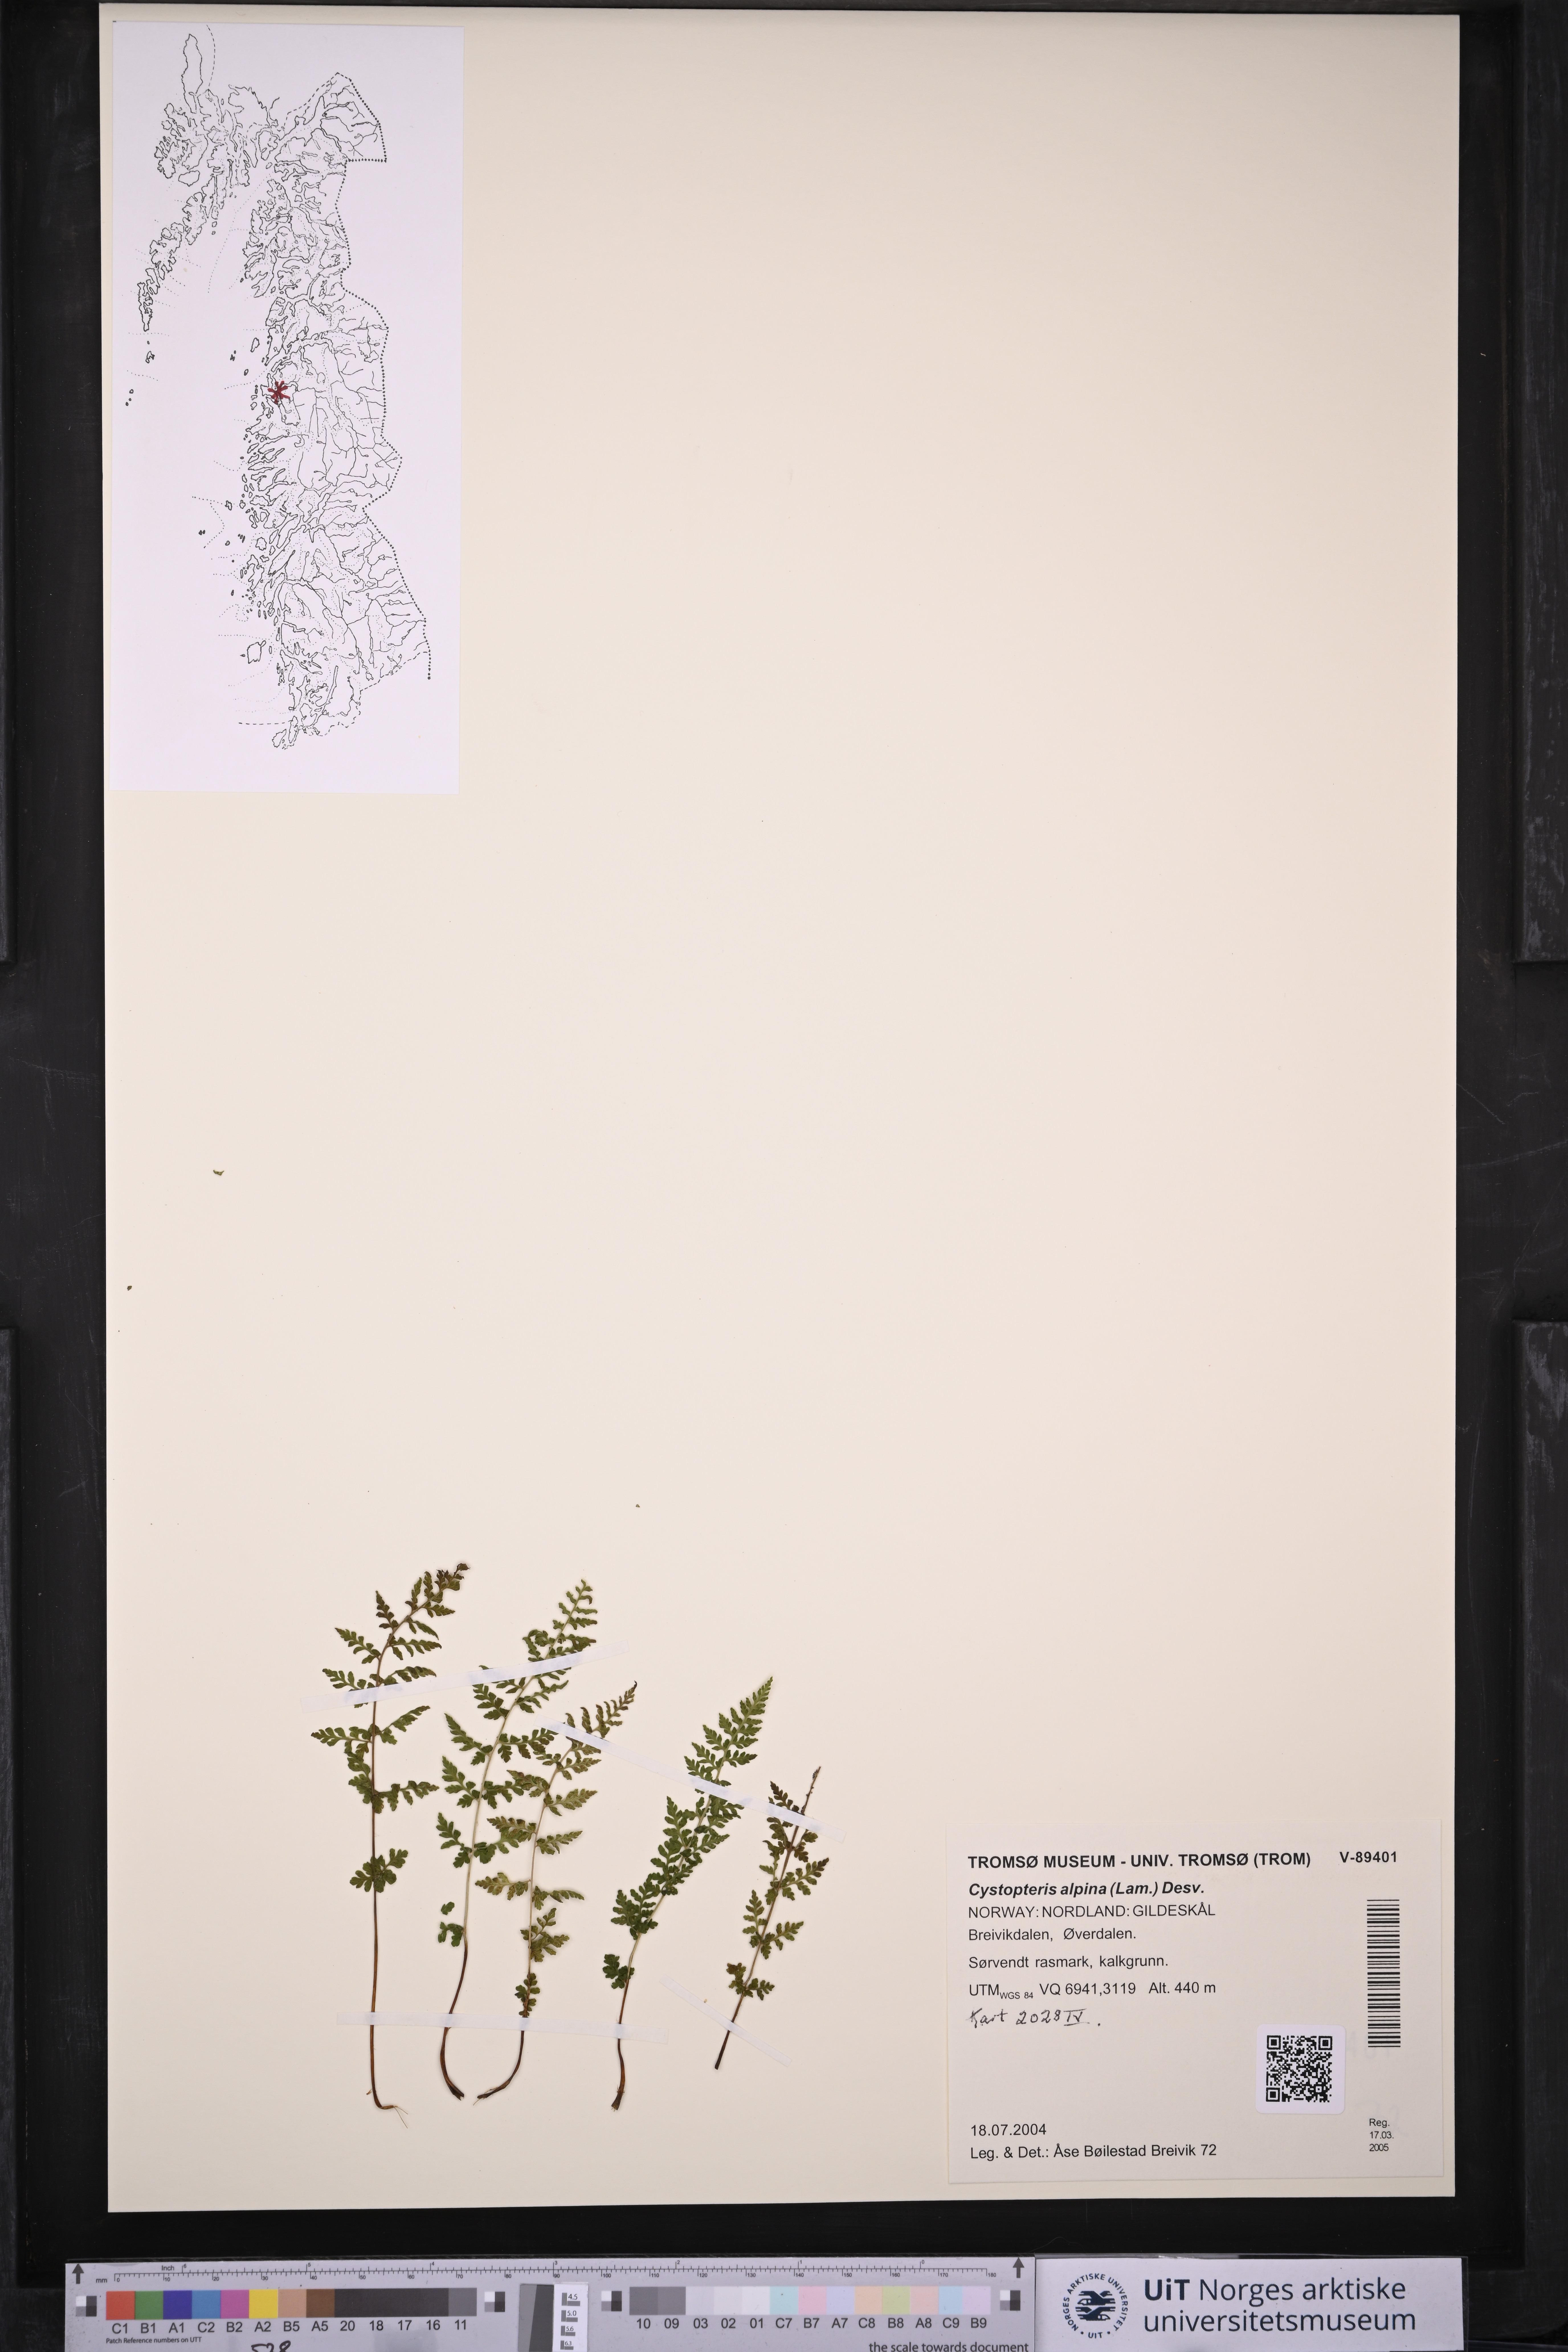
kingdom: Plantae
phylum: Tracheophyta
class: Polypodiopsida
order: Polypodiales
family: Cystopteridaceae
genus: Cystopteris
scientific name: Cystopteris alpina
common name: Alpine bladder-fern
